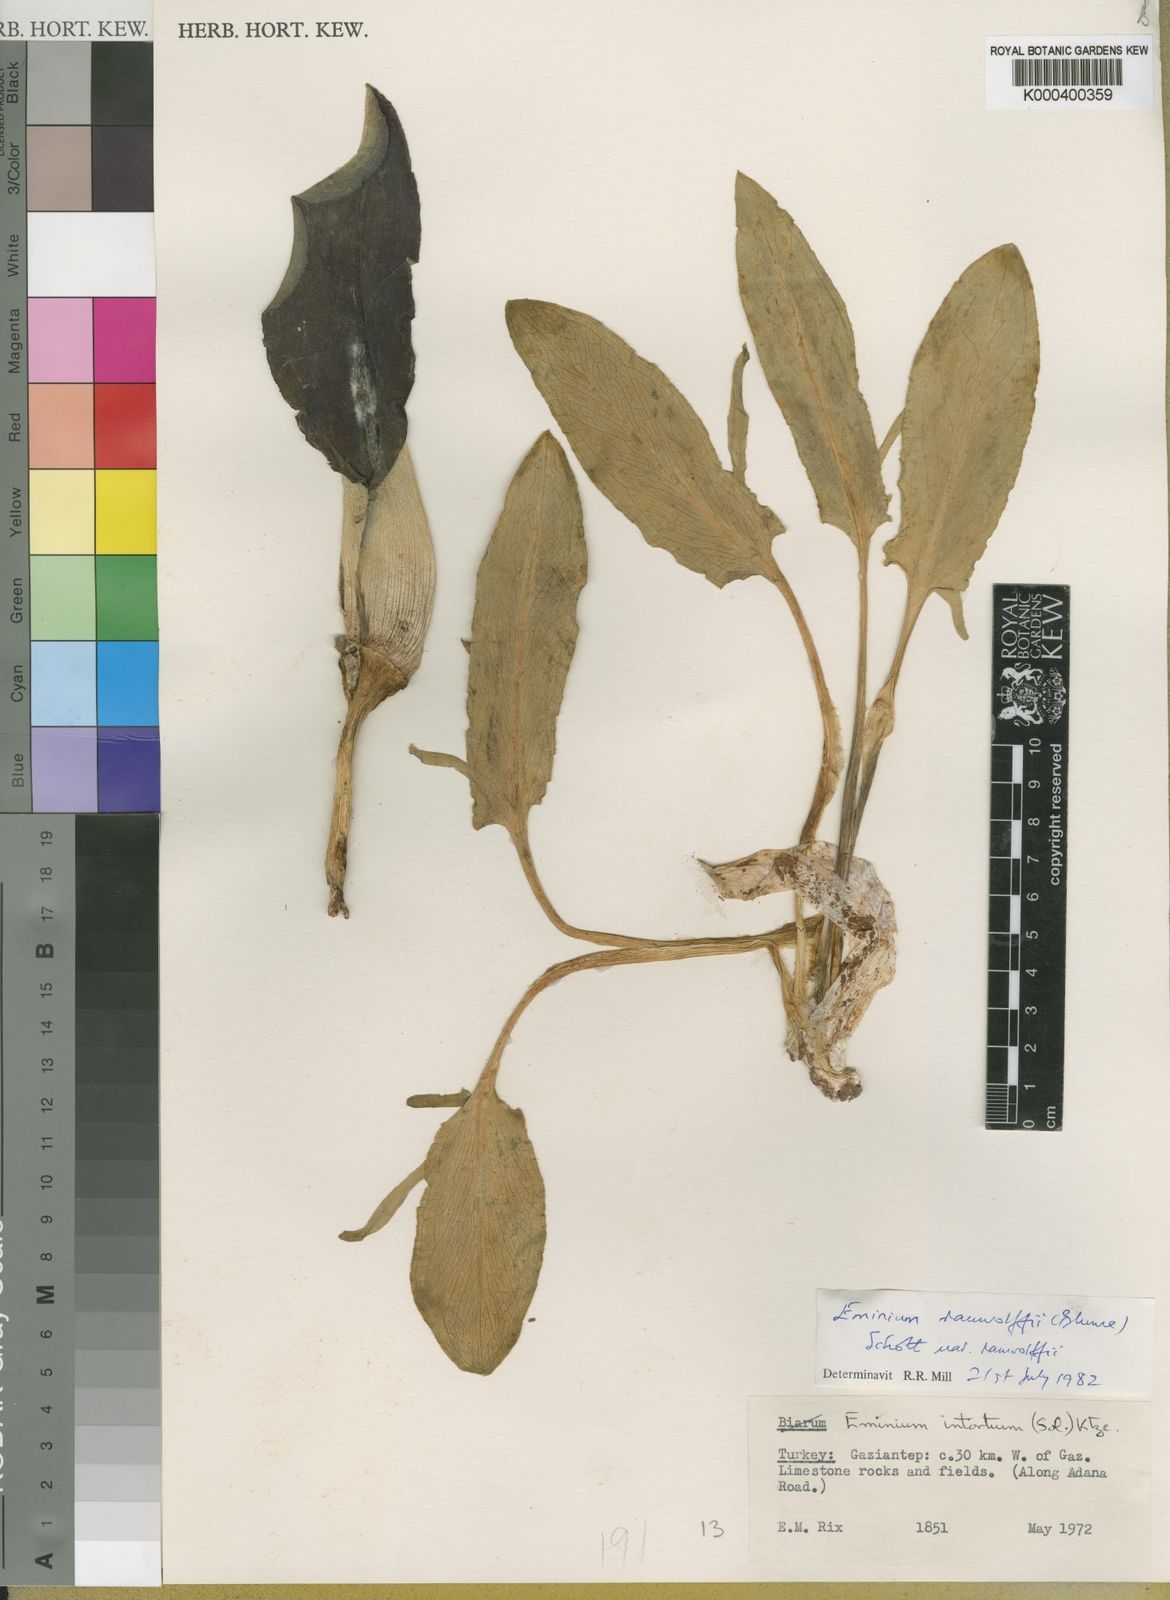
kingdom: Plantae
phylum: Tracheophyta
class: Liliopsida
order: Alismatales
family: Araceae
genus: Eminium
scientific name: Eminium rauwolffii
